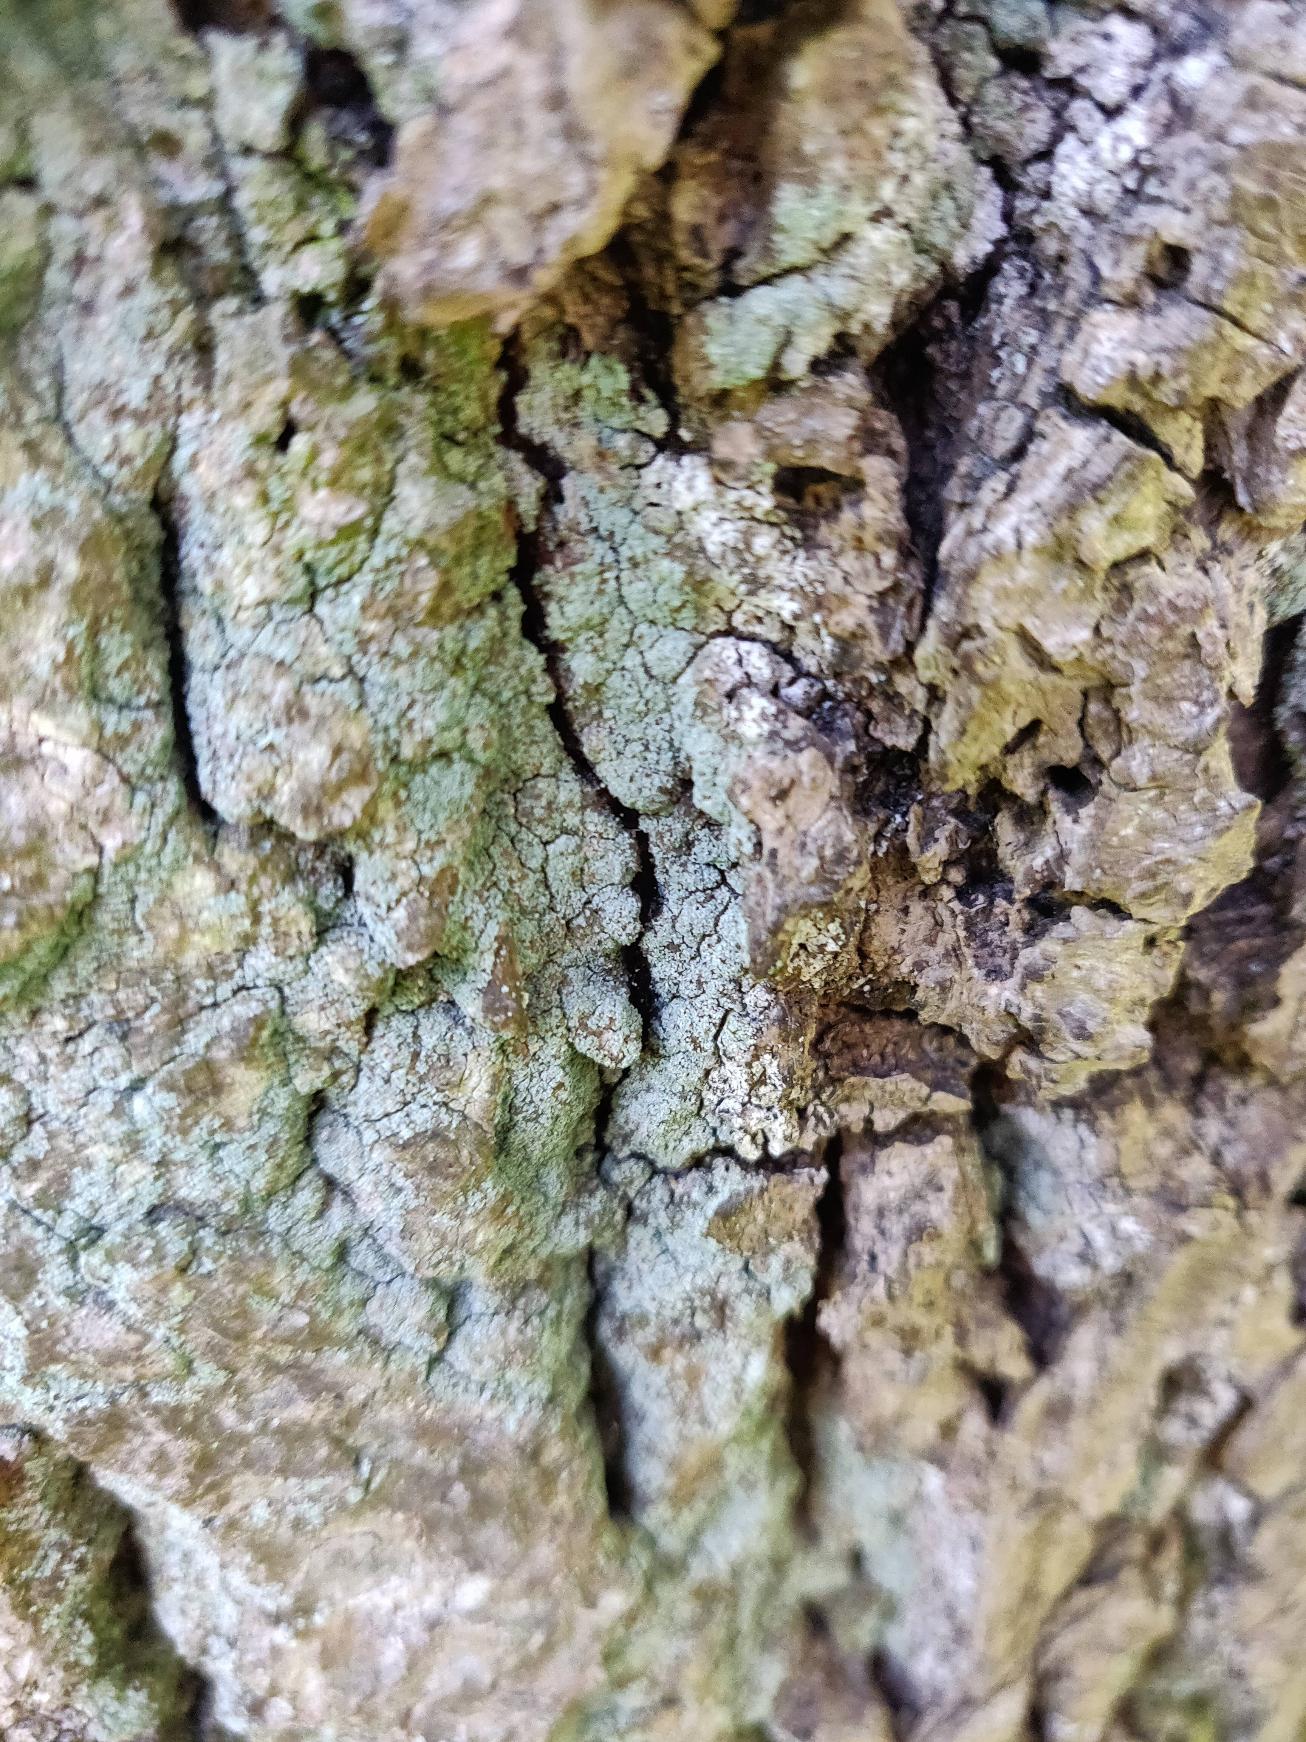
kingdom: Fungi
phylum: Ascomycota
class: Lecanoromycetes
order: Lecanorales
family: Stereocaulaceae
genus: Lepraria
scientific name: Lepraria
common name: Støvlav
